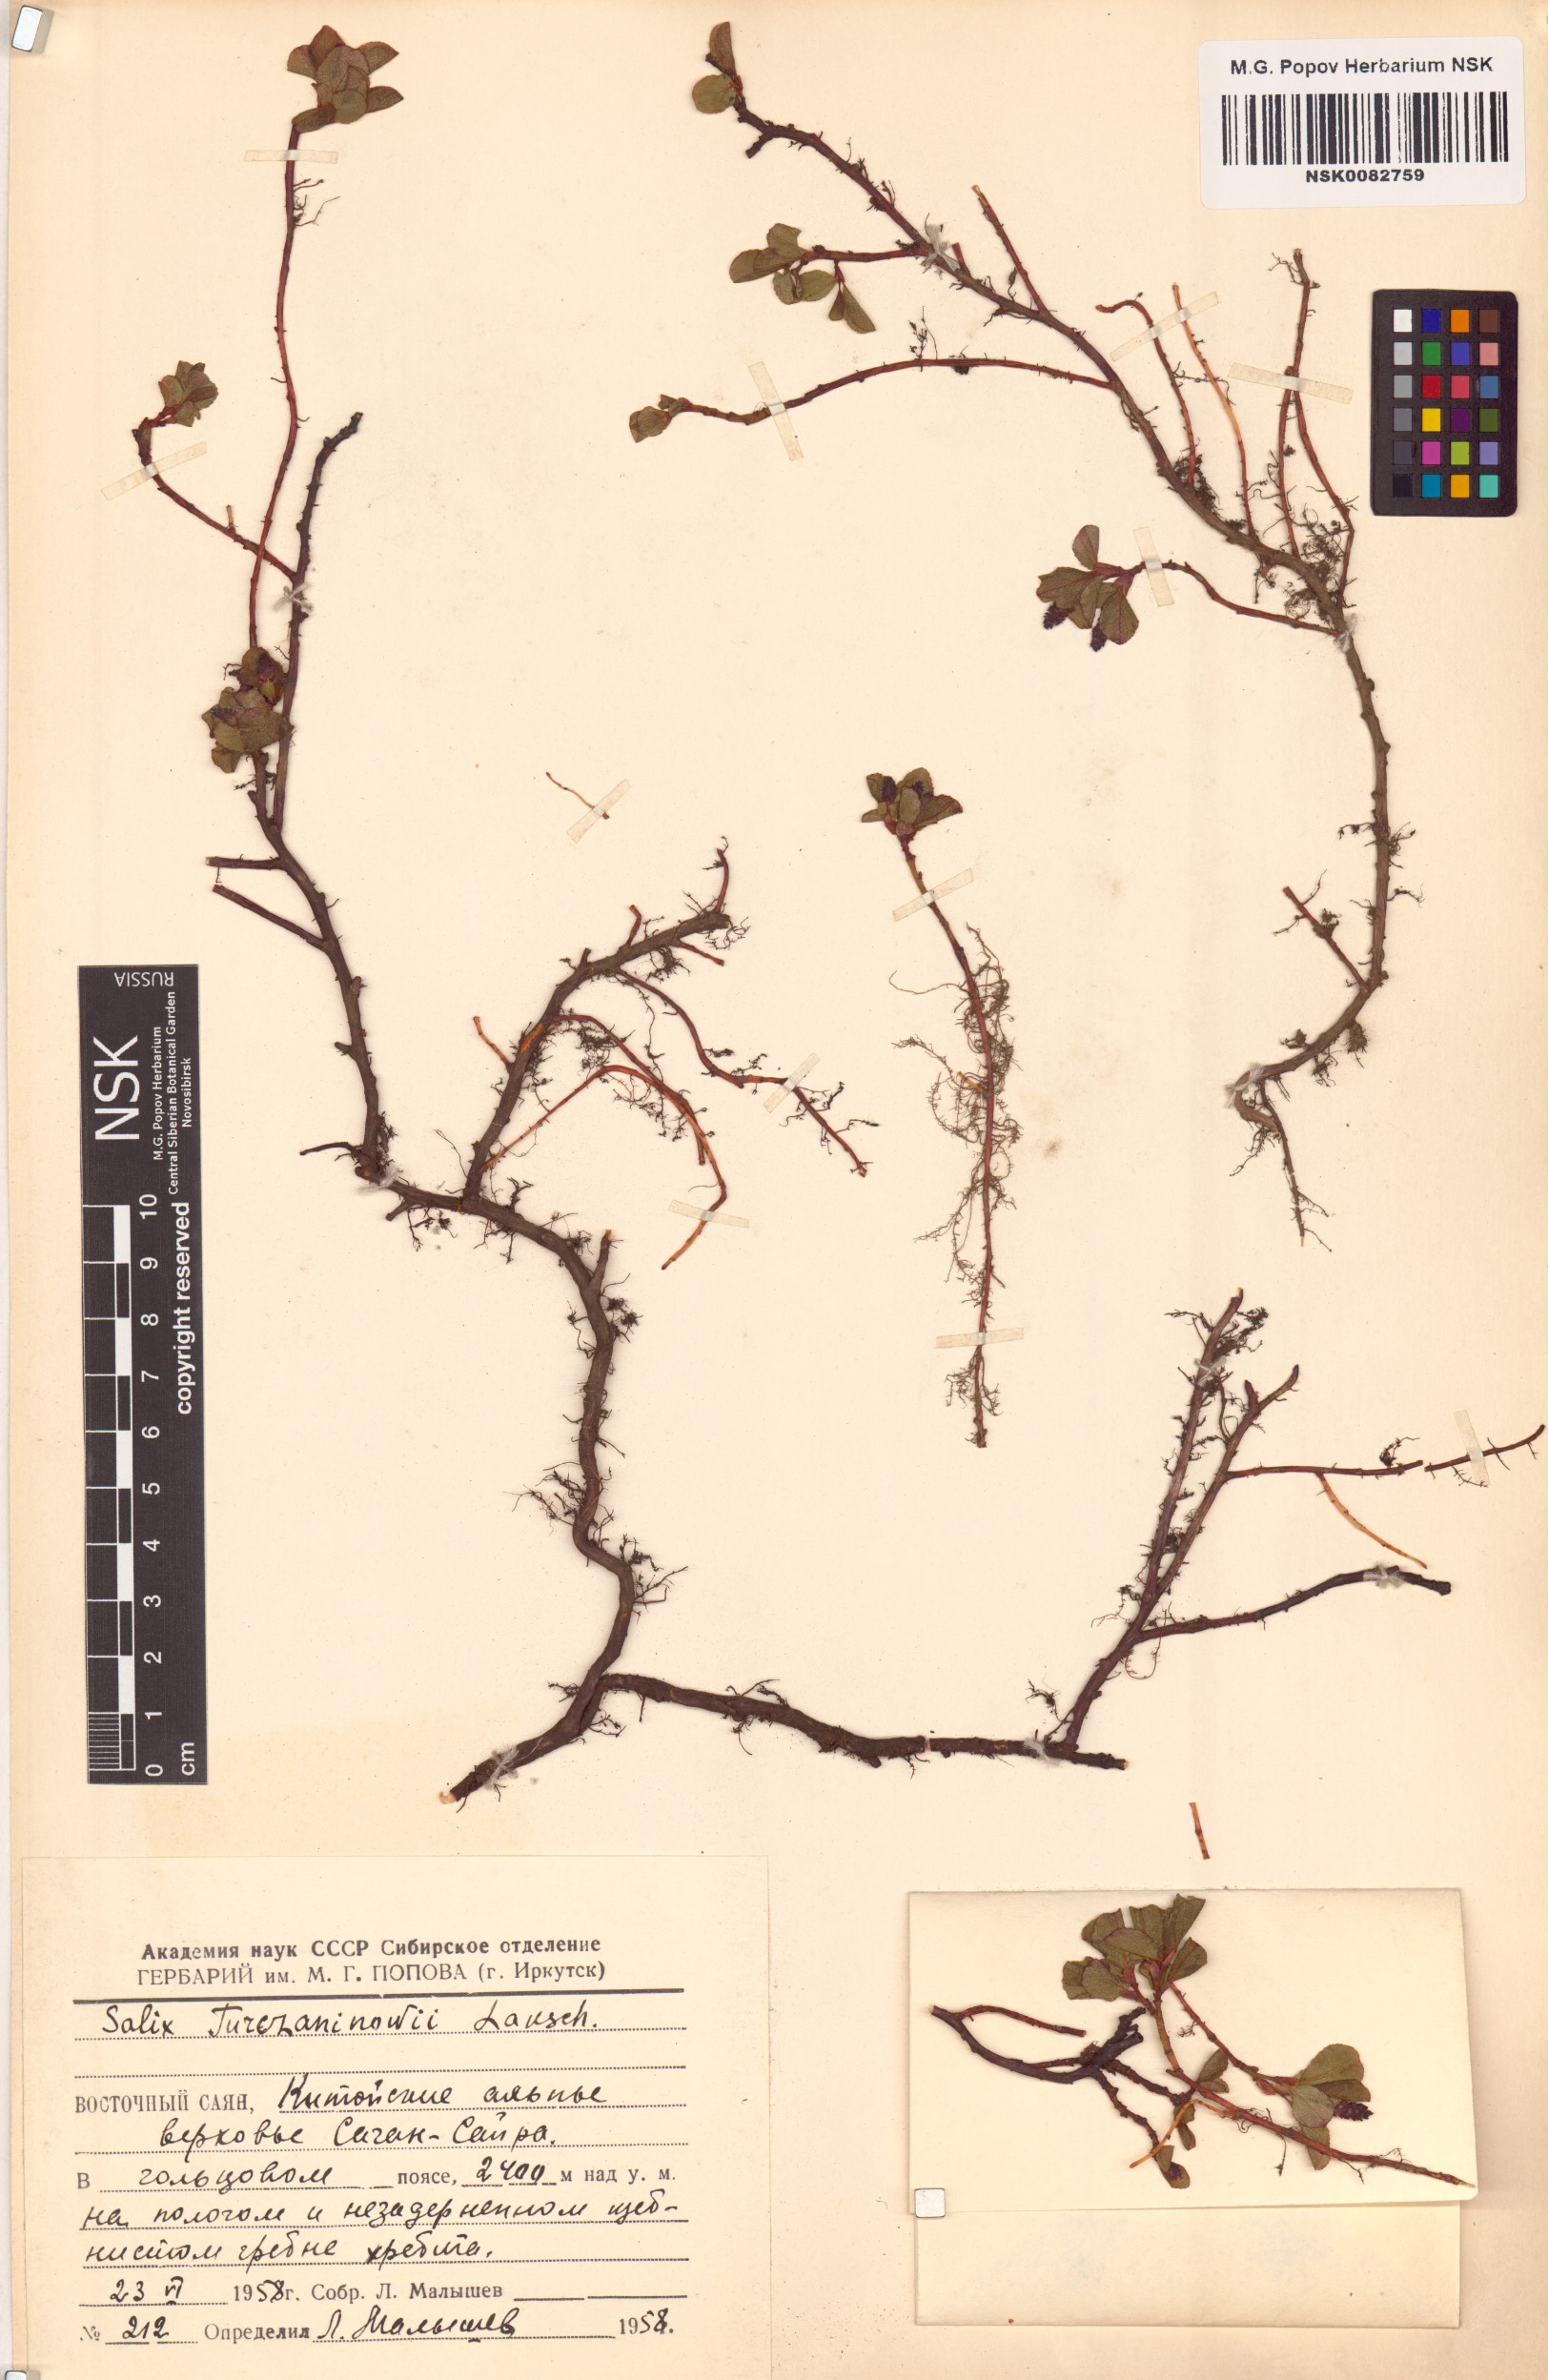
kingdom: Plantae
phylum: Tracheophyta
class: Magnoliopsida
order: Malpighiales
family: Salicaceae
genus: Salix
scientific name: Salix turczaninowii
